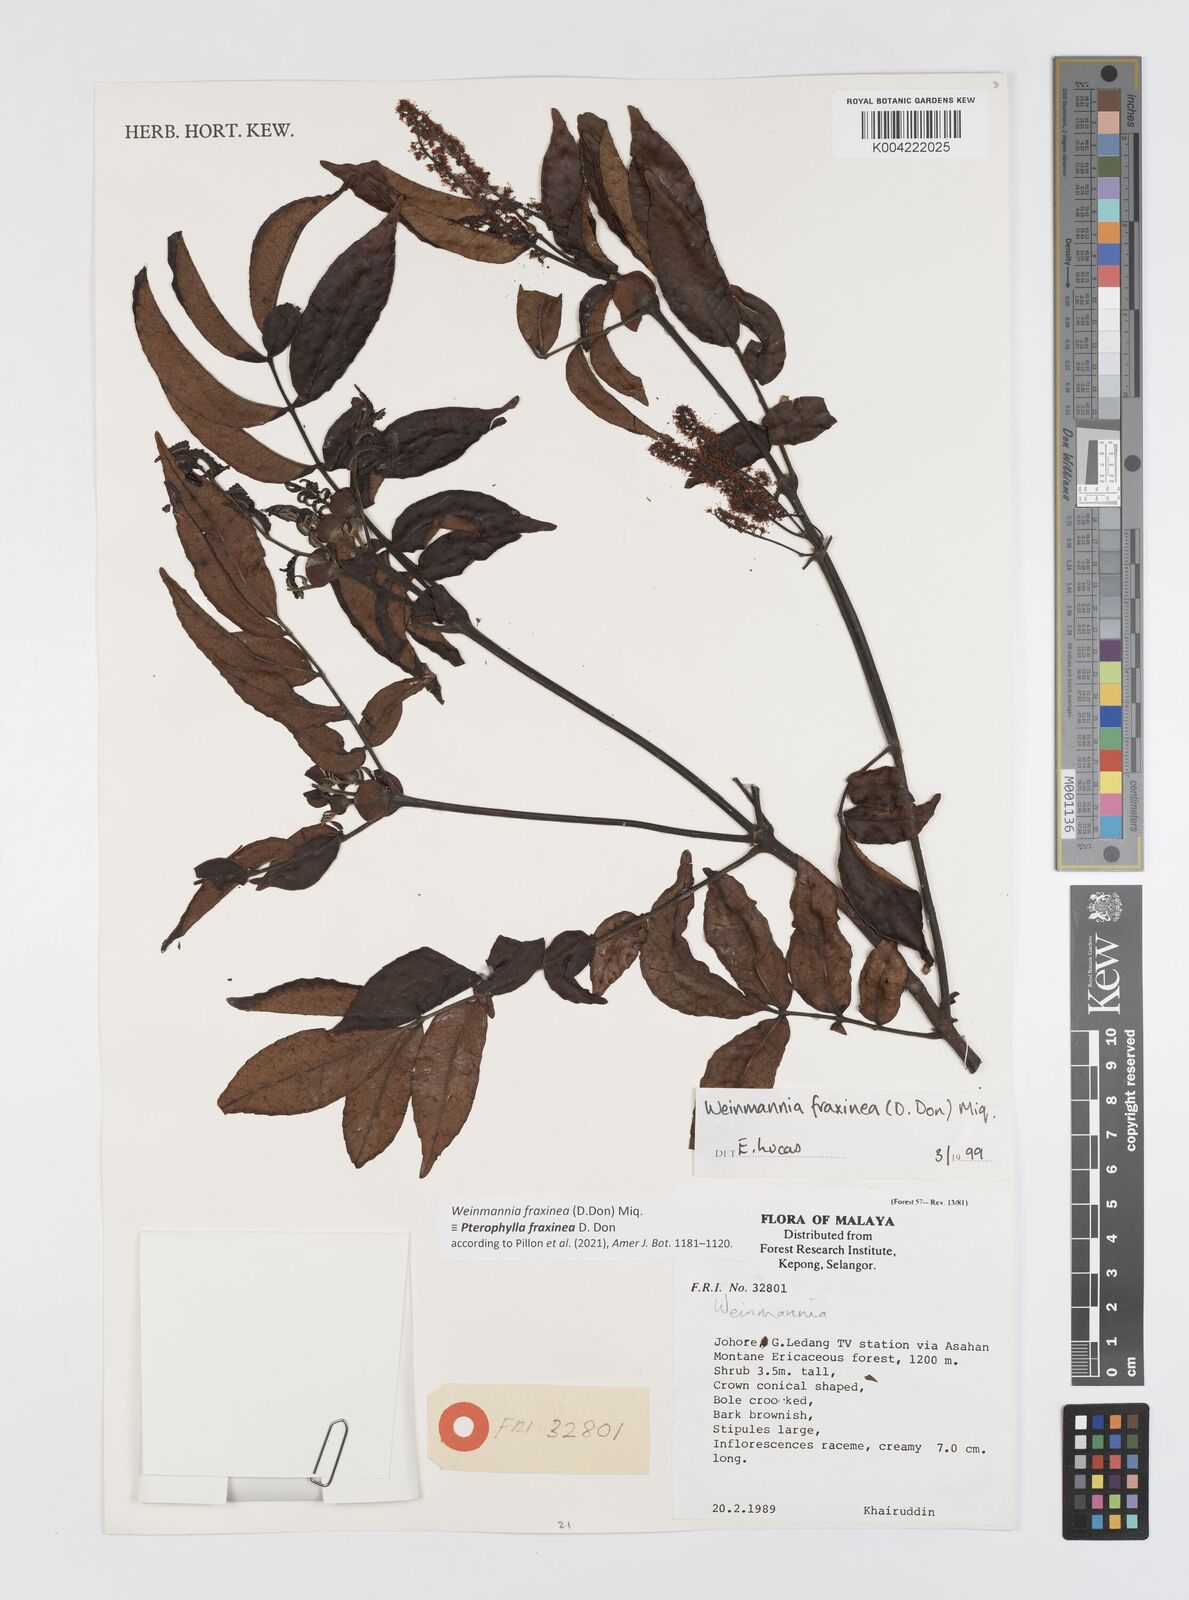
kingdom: Plantae
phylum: Tracheophyta
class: Magnoliopsida
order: Oxalidales
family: Cunoniaceae
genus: Pterophylla
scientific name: Pterophylla fraxinea
